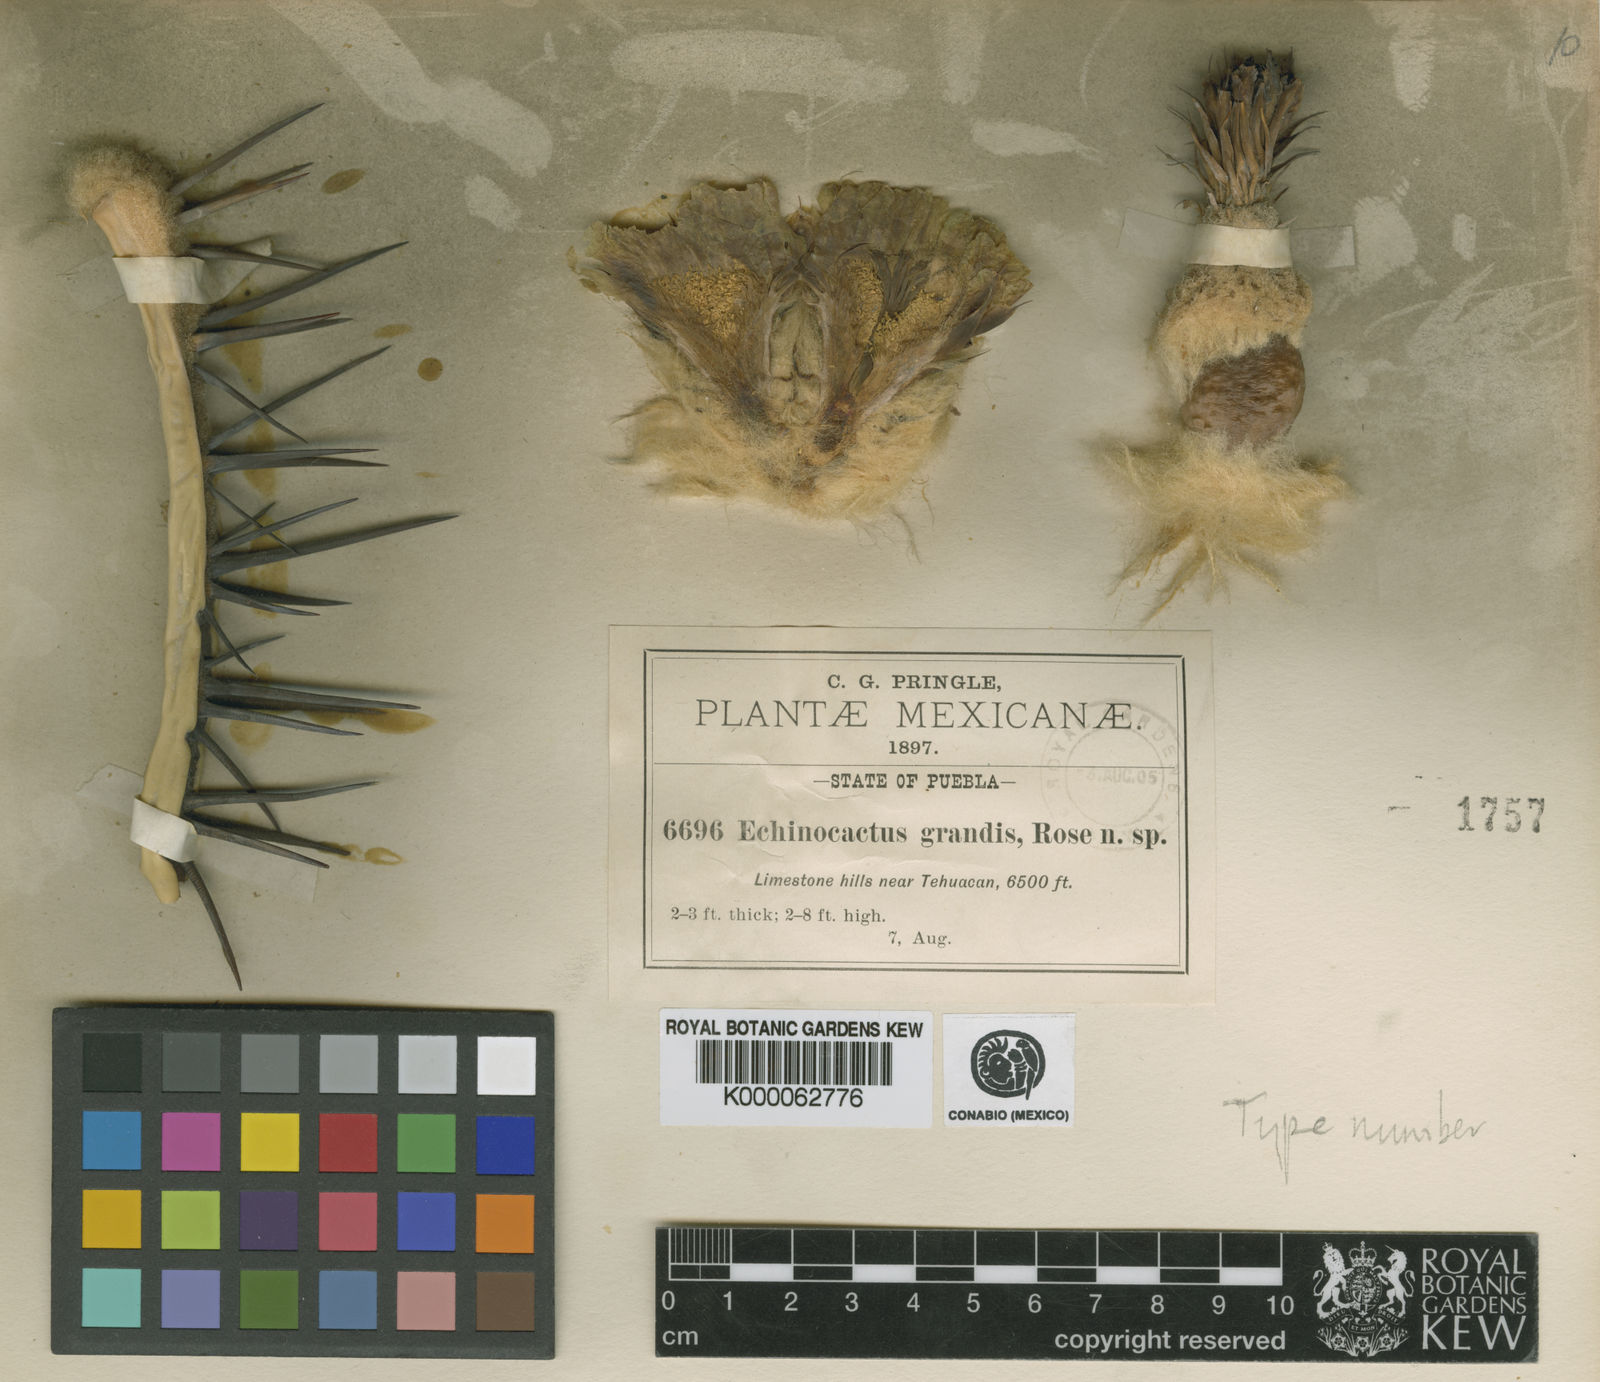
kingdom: Plantae
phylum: Tracheophyta
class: Magnoliopsida
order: Caryophyllales
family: Cactaceae
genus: Echinocactus
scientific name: Echinocactus platyacanthus
